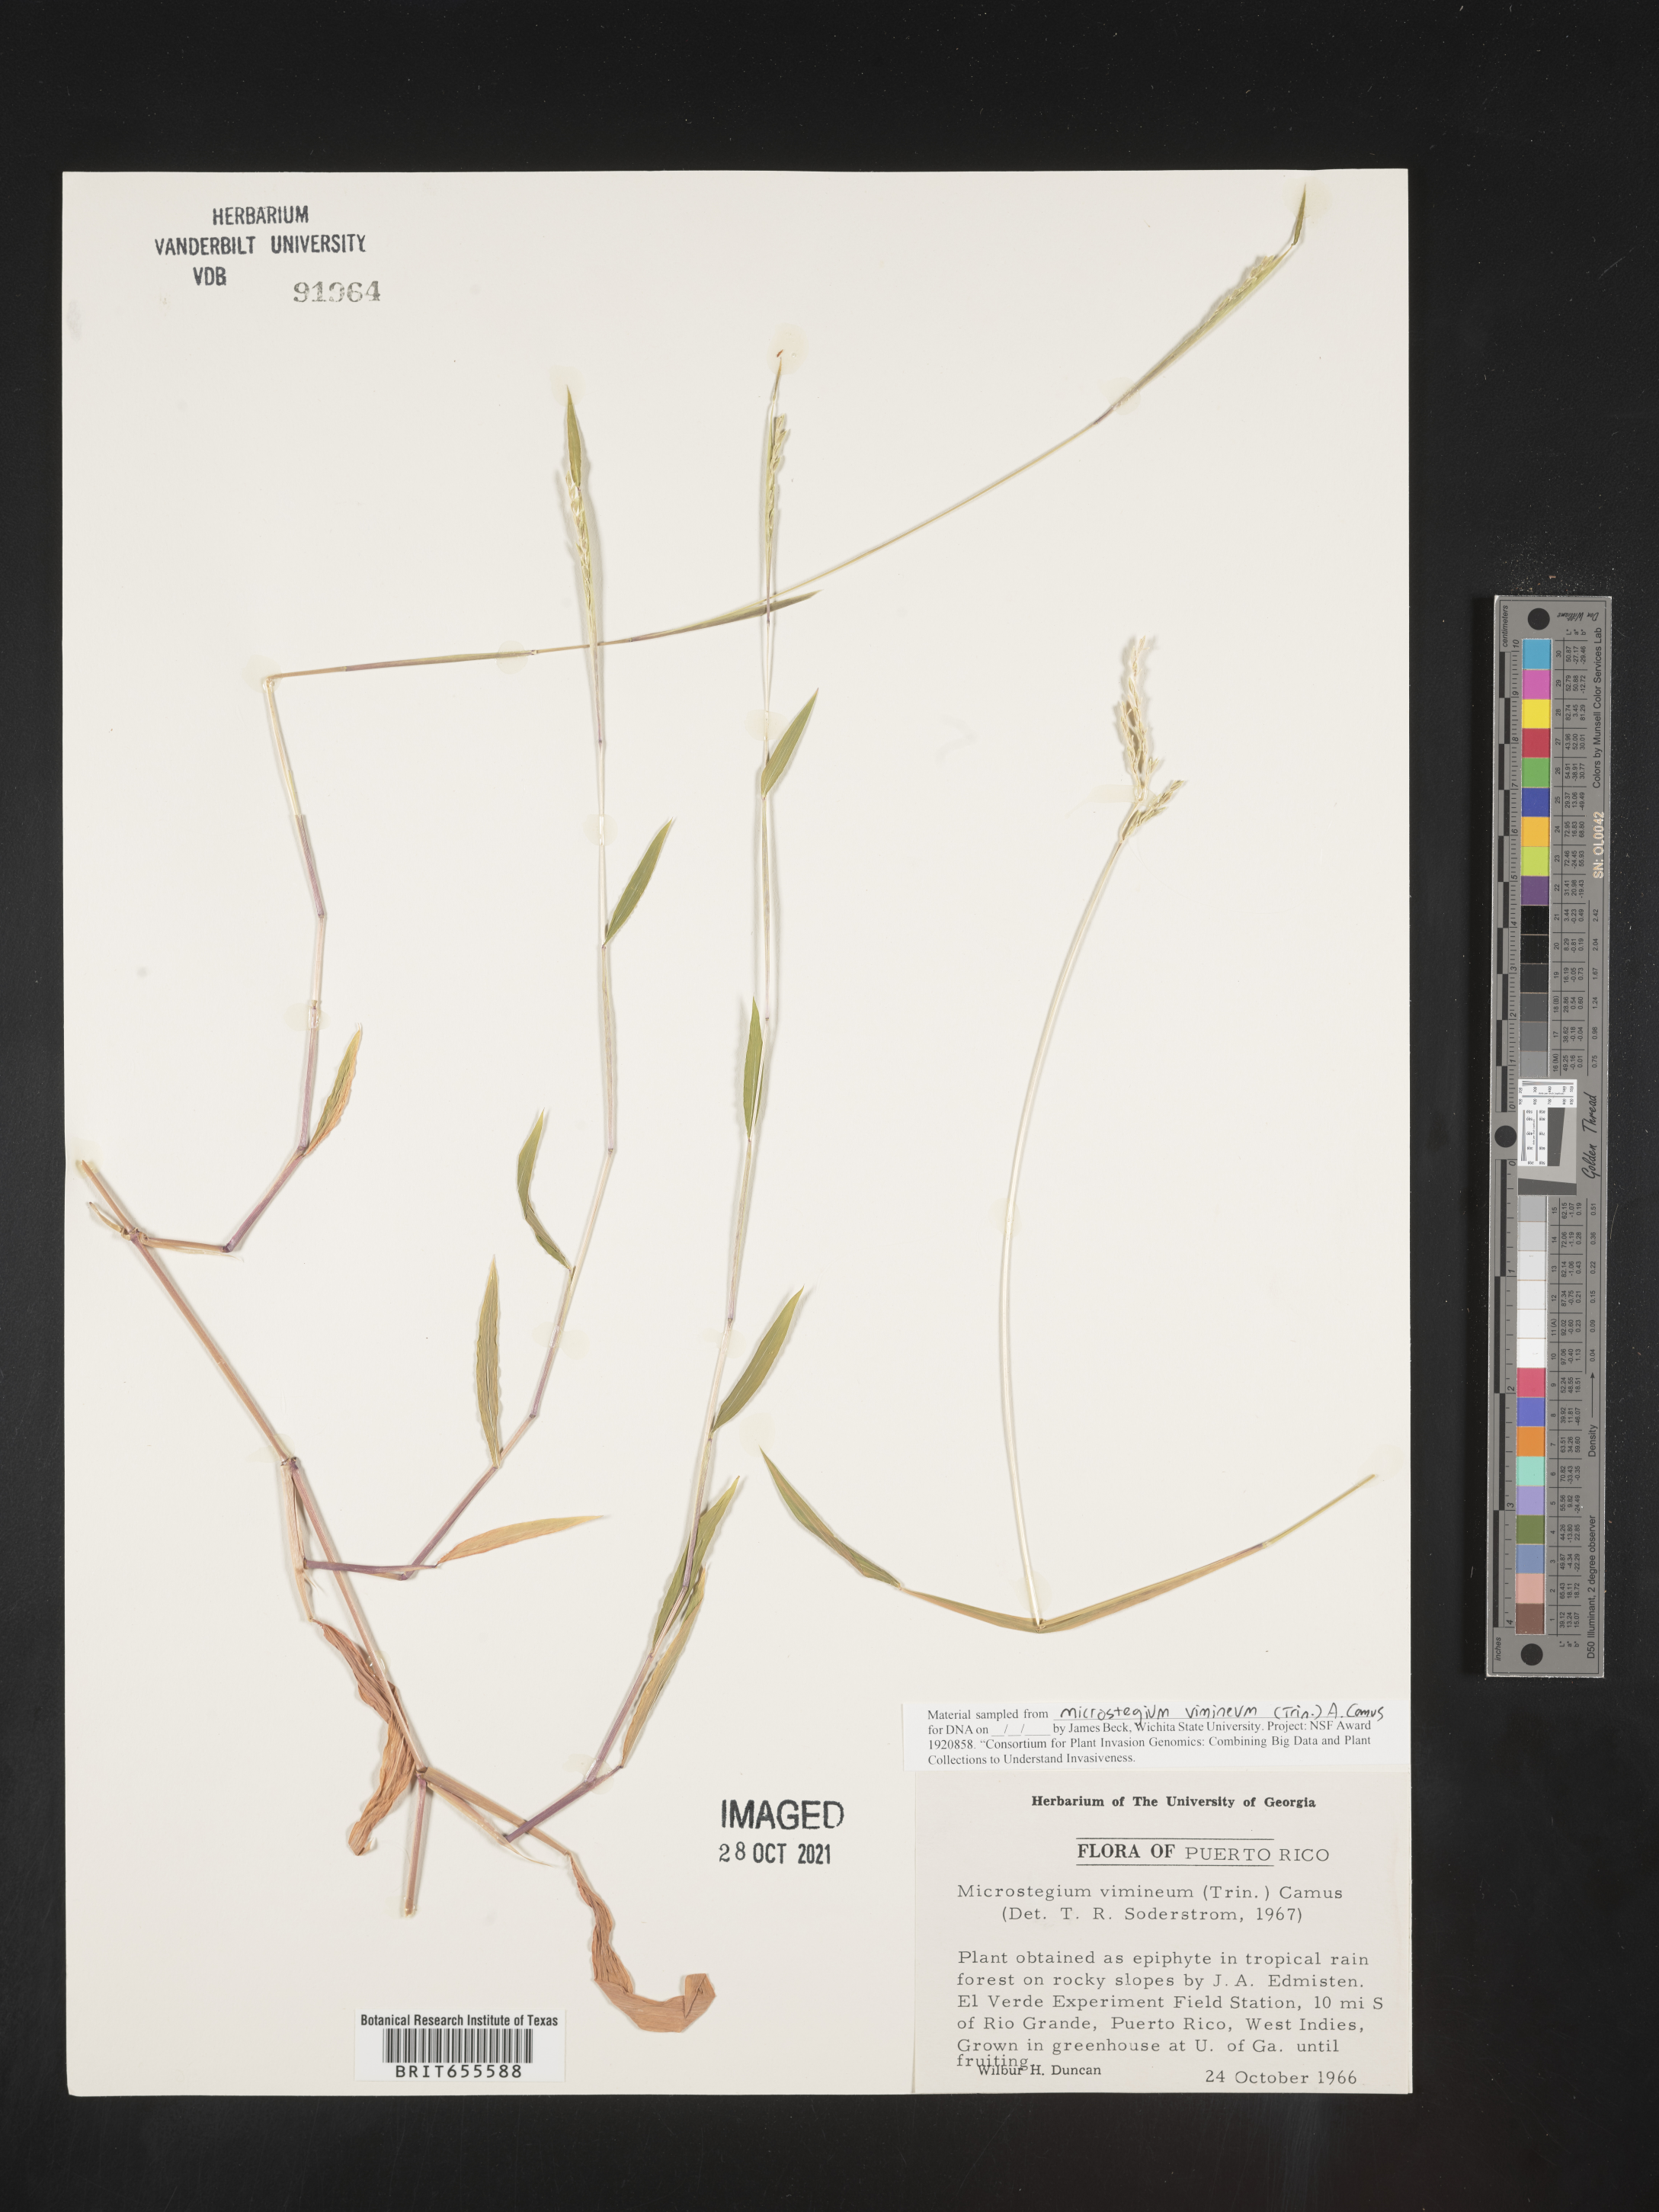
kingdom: Plantae
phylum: Tracheophyta
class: Liliopsida
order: Poales
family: Poaceae
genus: Microstegium
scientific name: Microstegium
